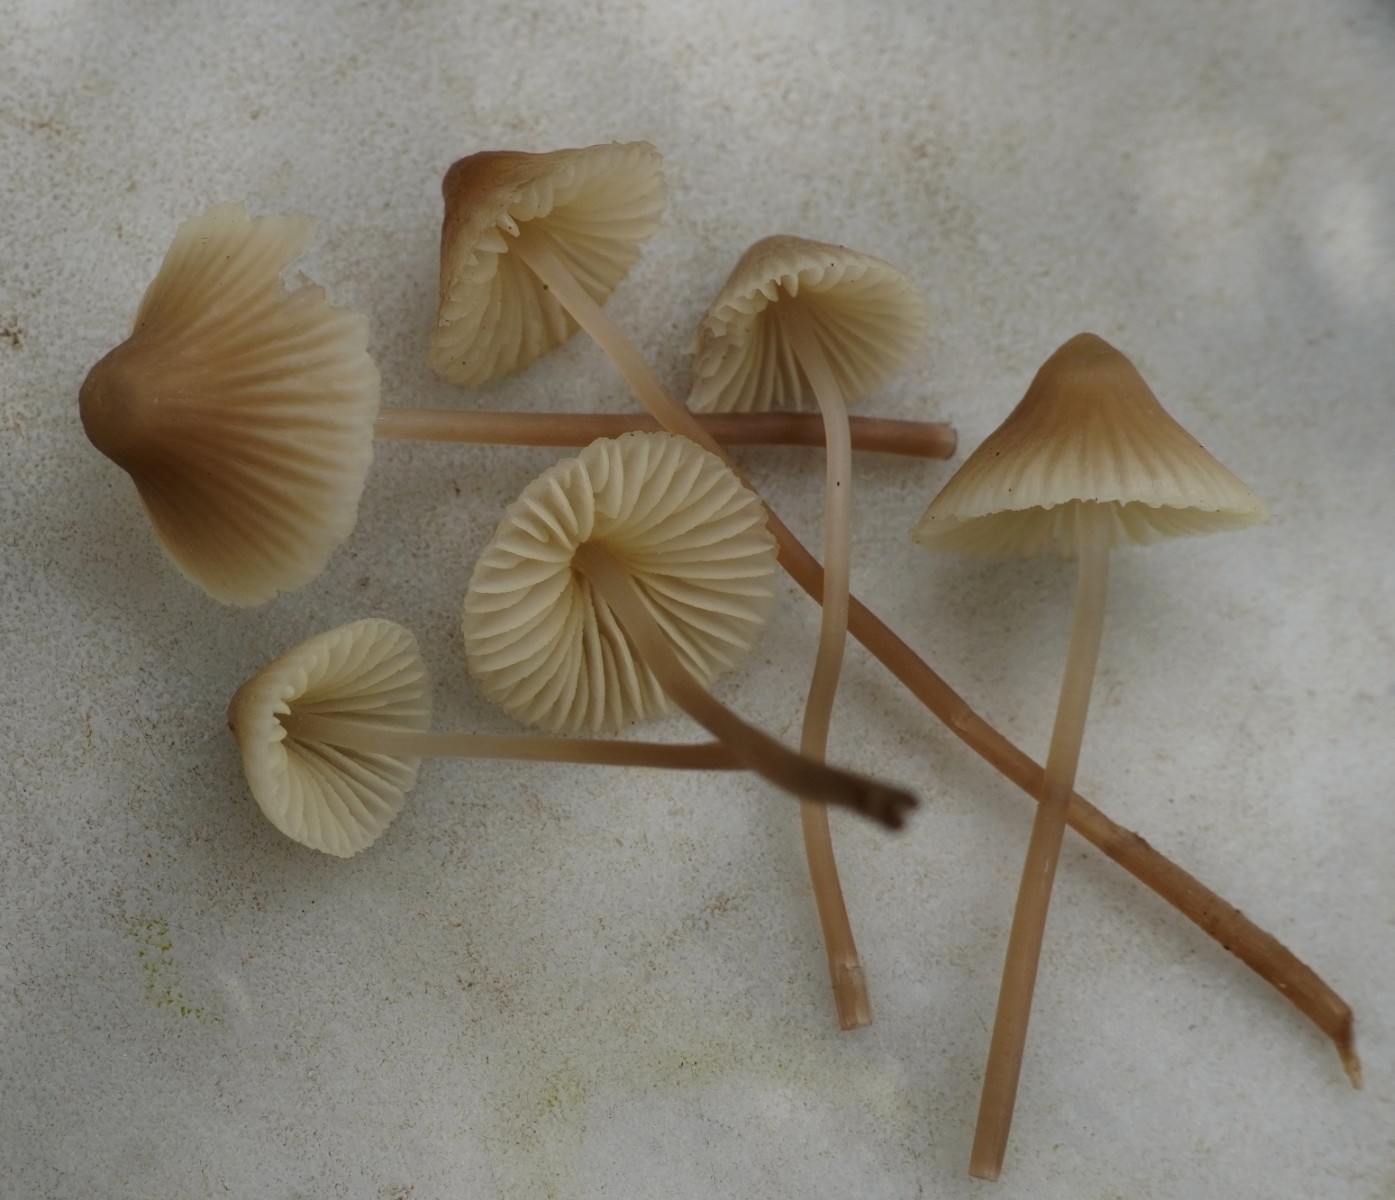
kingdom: Fungi
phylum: Basidiomycota
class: Agaricomycetes
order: Agaricales
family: Mycenaceae
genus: Mycena
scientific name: Mycena
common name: huesvamp
